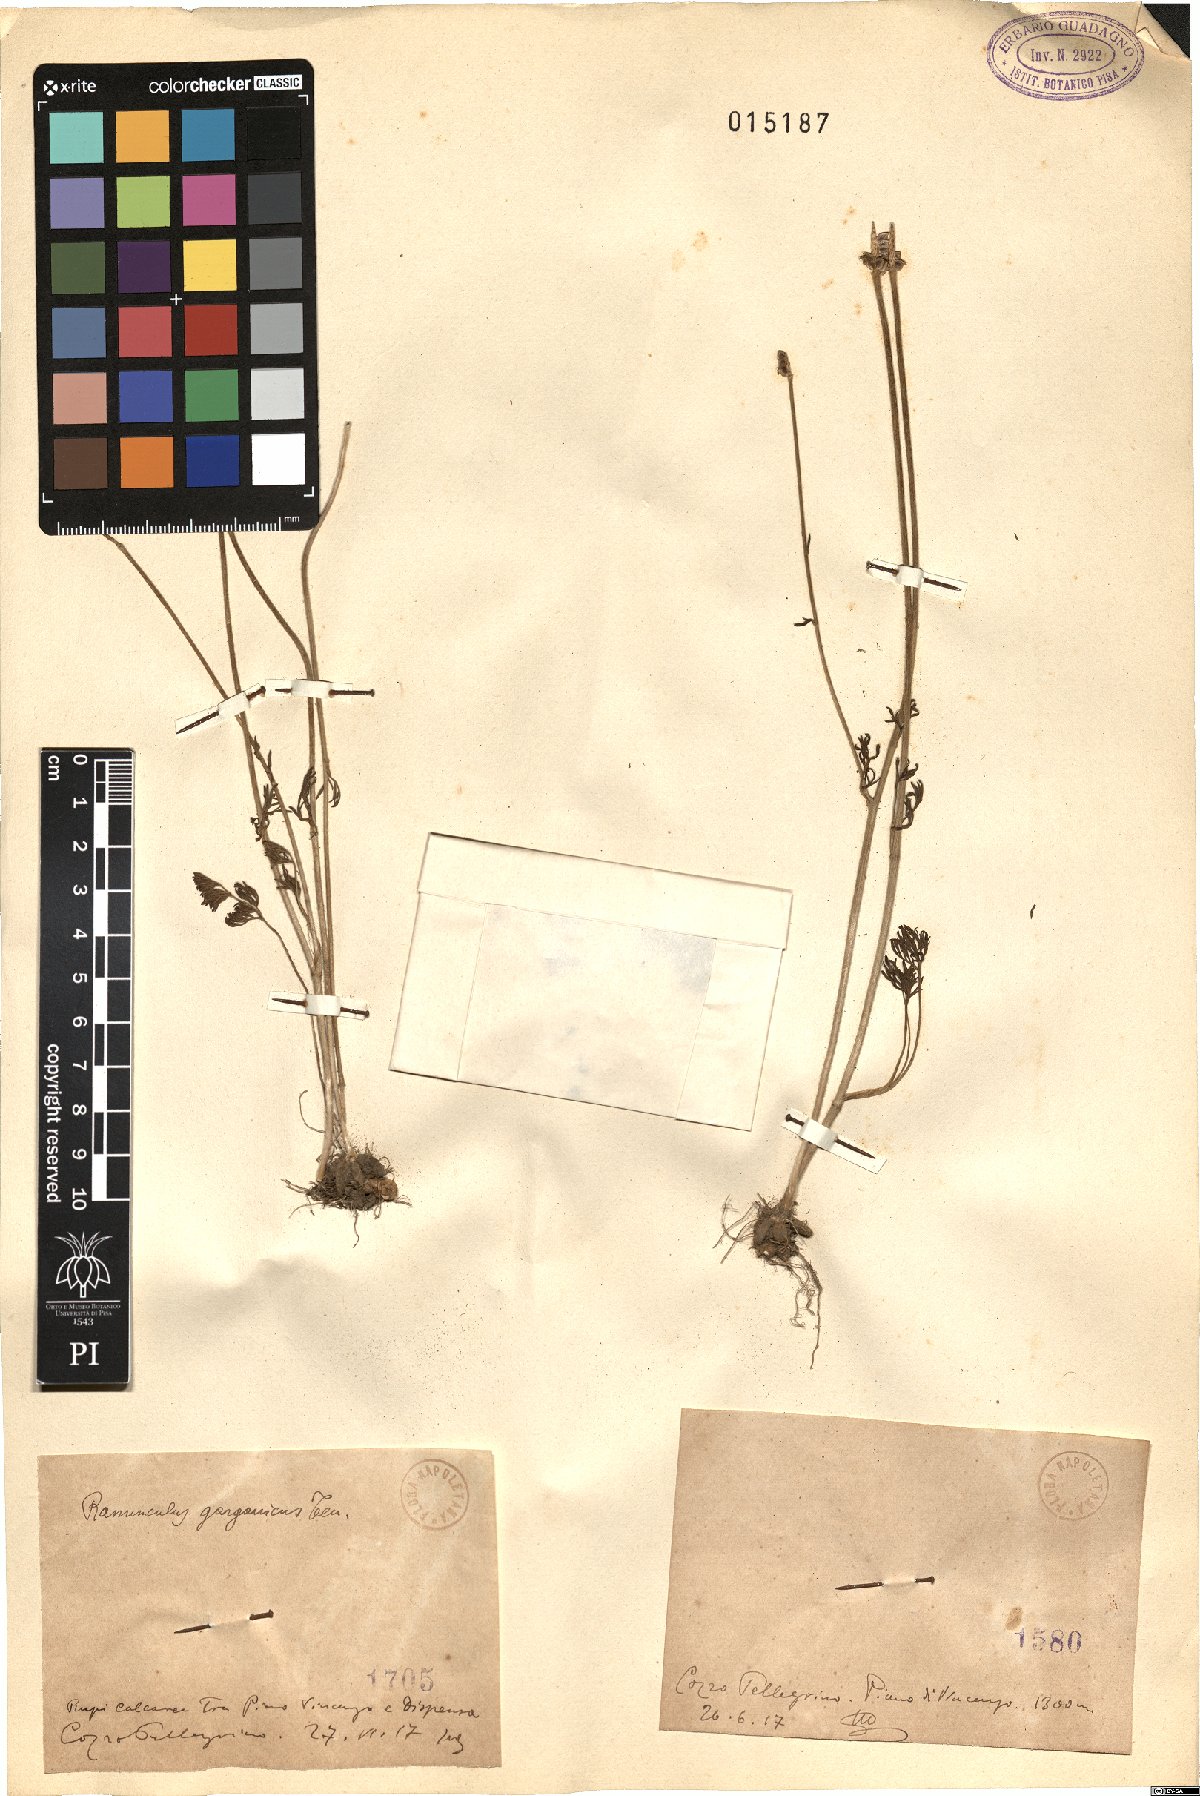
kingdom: Plantae
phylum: Tracheophyta
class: Magnoliopsida
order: Ranunculales
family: Ranunculaceae
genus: Ranunculus
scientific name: Ranunculus
